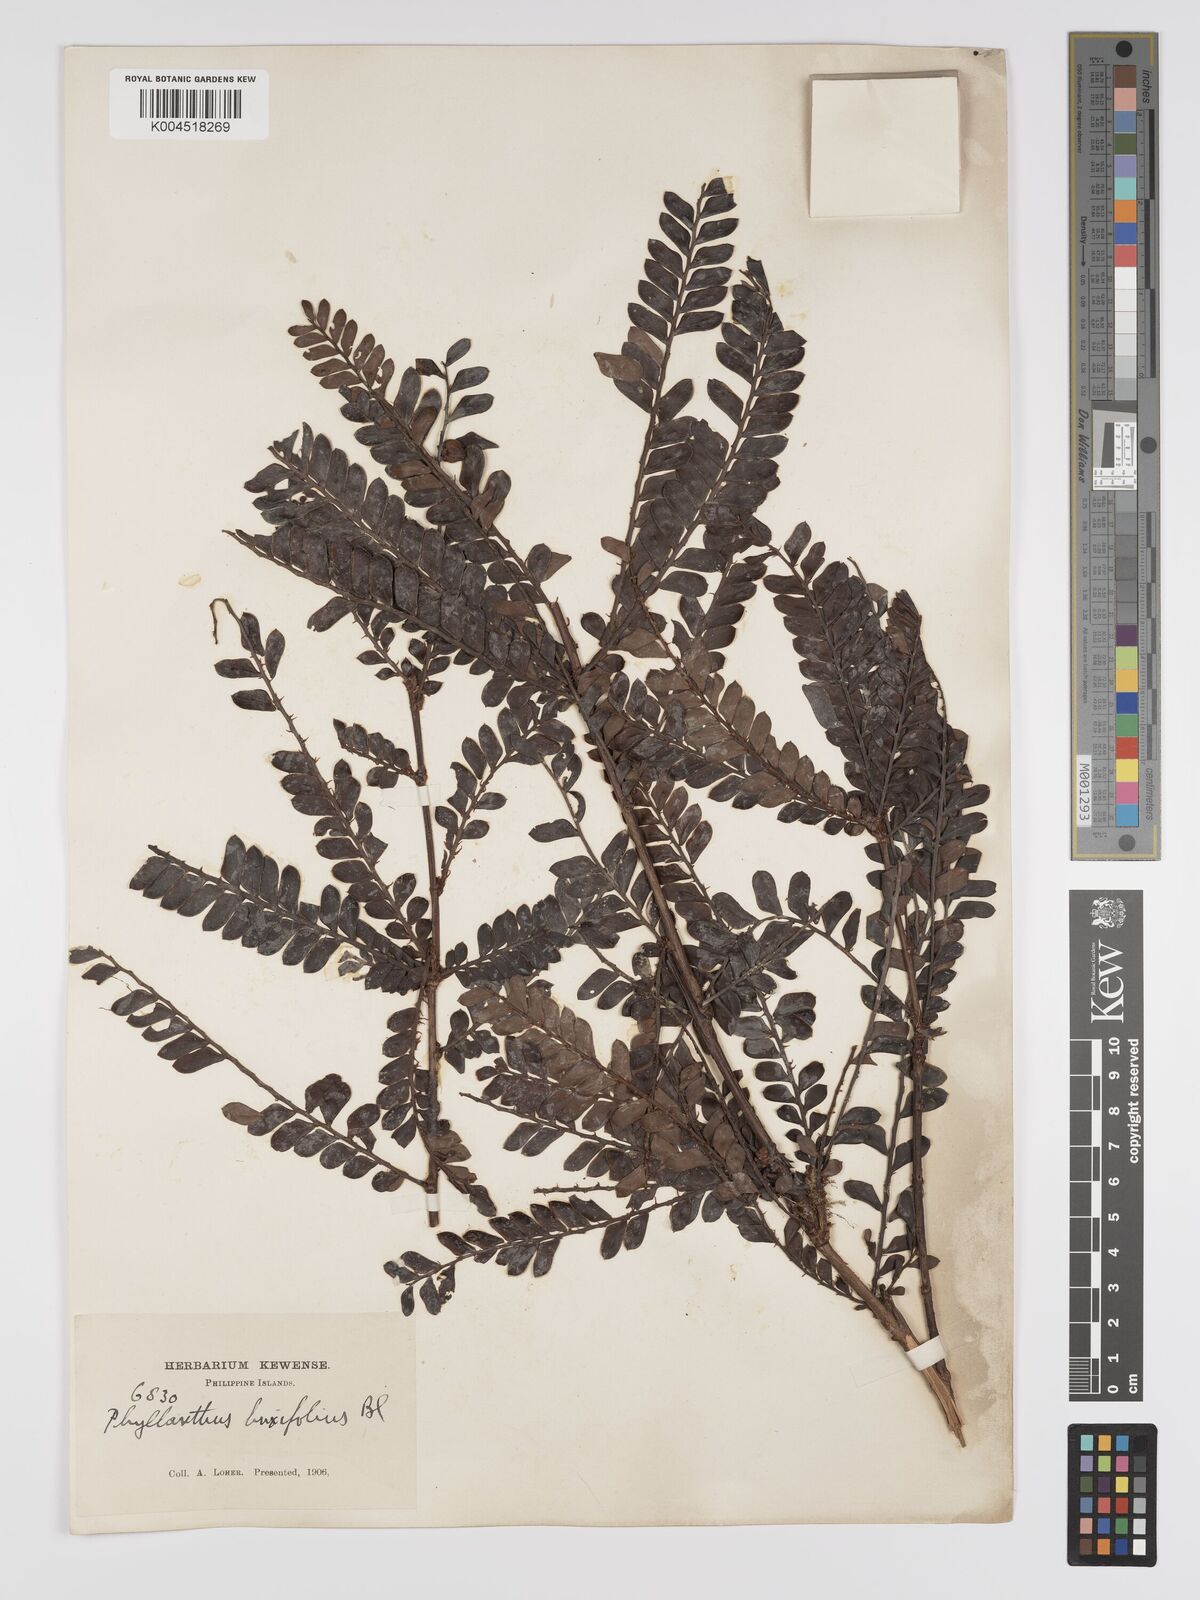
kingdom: Plantae
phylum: Tracheophyta
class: Magnoliopsida
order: Malpighiales
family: Phyllanthaceae
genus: Phyllanthus
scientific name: Phyllanthus buxifolius
